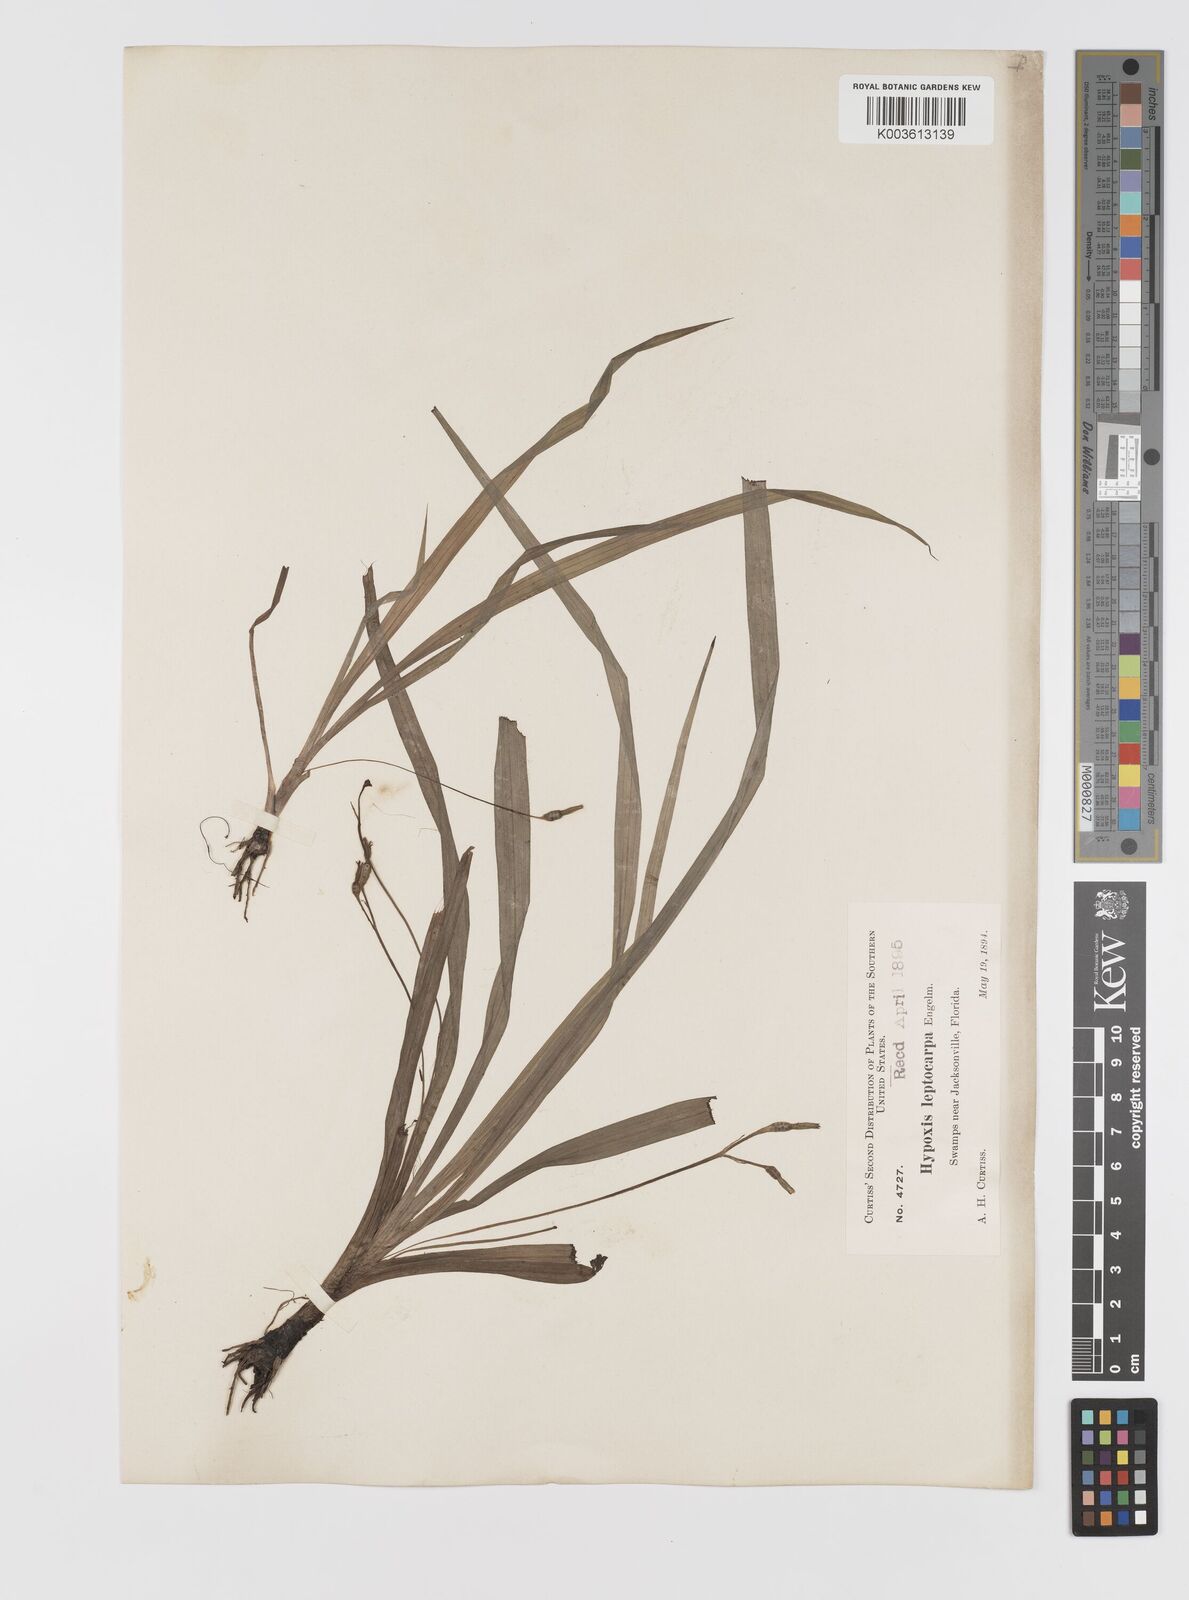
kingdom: Plantae
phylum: Tracheophyta
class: Liliopsida
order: Asparagales
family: Hypoxidaceae
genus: Hypoxis
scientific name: Hypoxis curtissii
